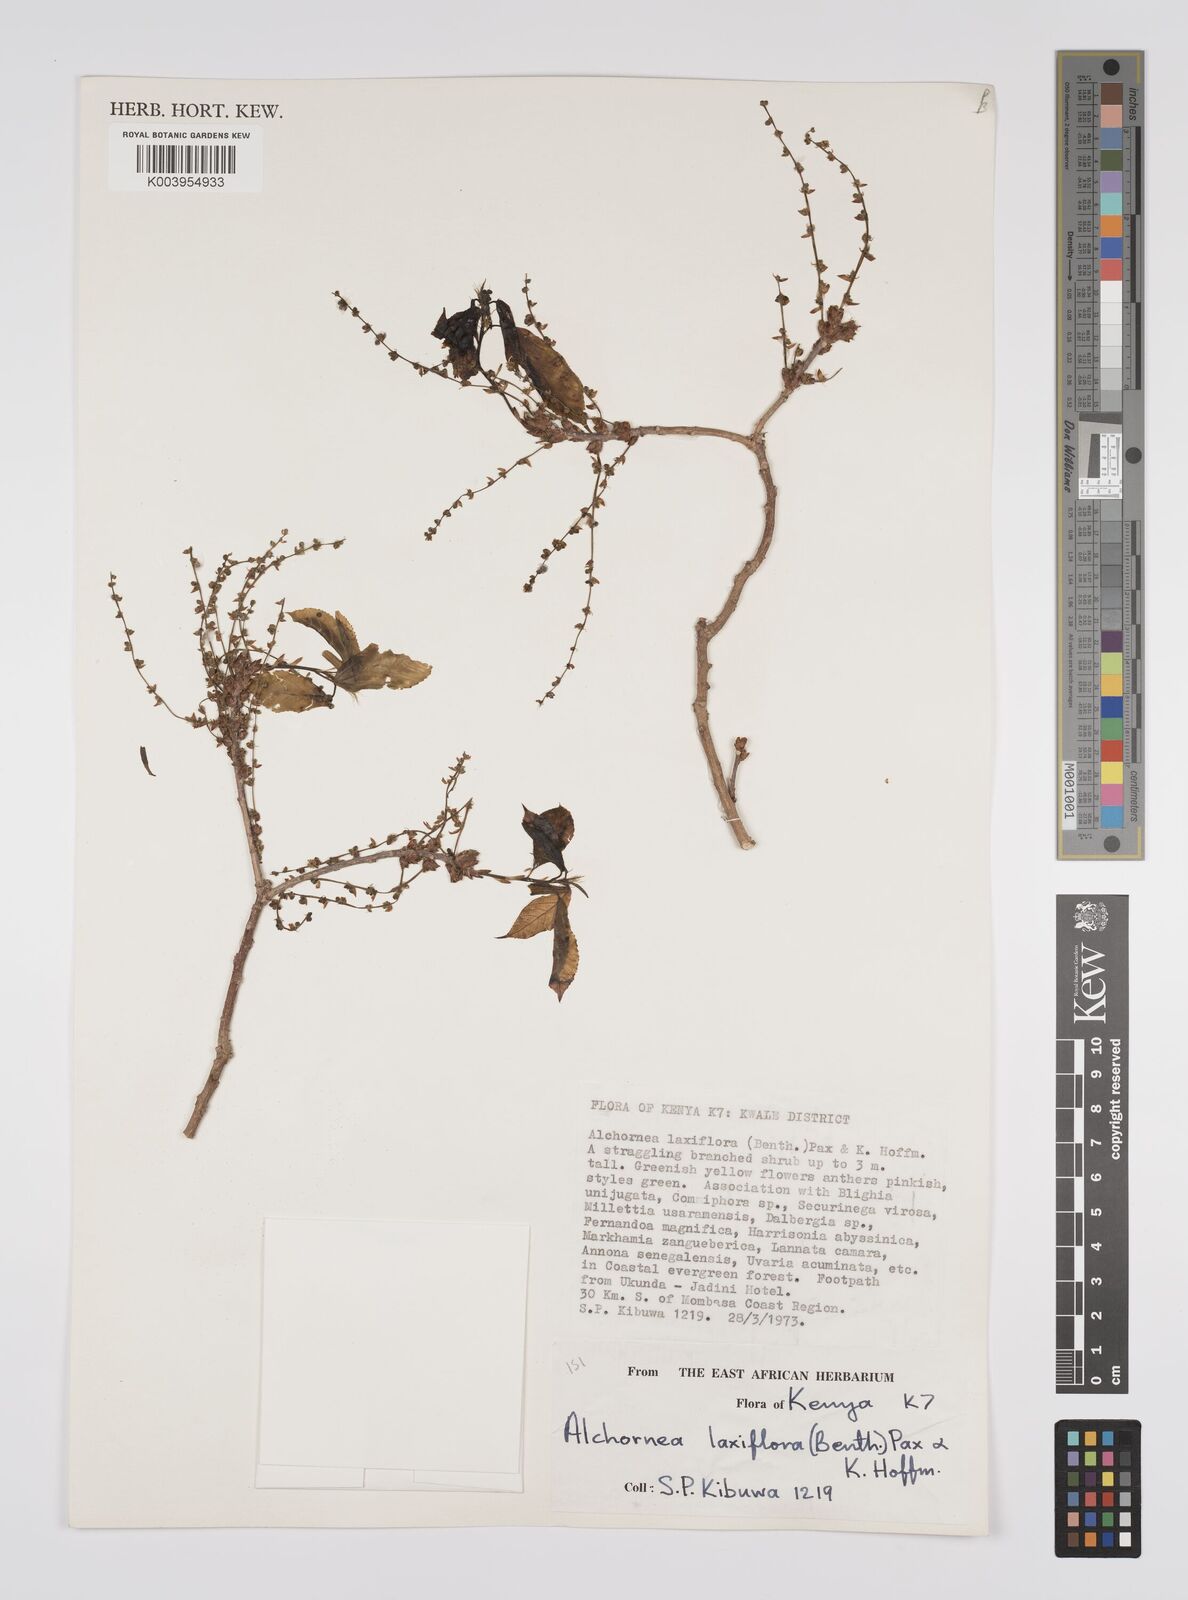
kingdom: Plantae
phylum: Tracheophyta
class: Magnoliopsida
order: Malpighiales
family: Euphorbiaceae
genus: Alchornea
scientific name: Alchornea laxiflora
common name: Lowveld bead-string
